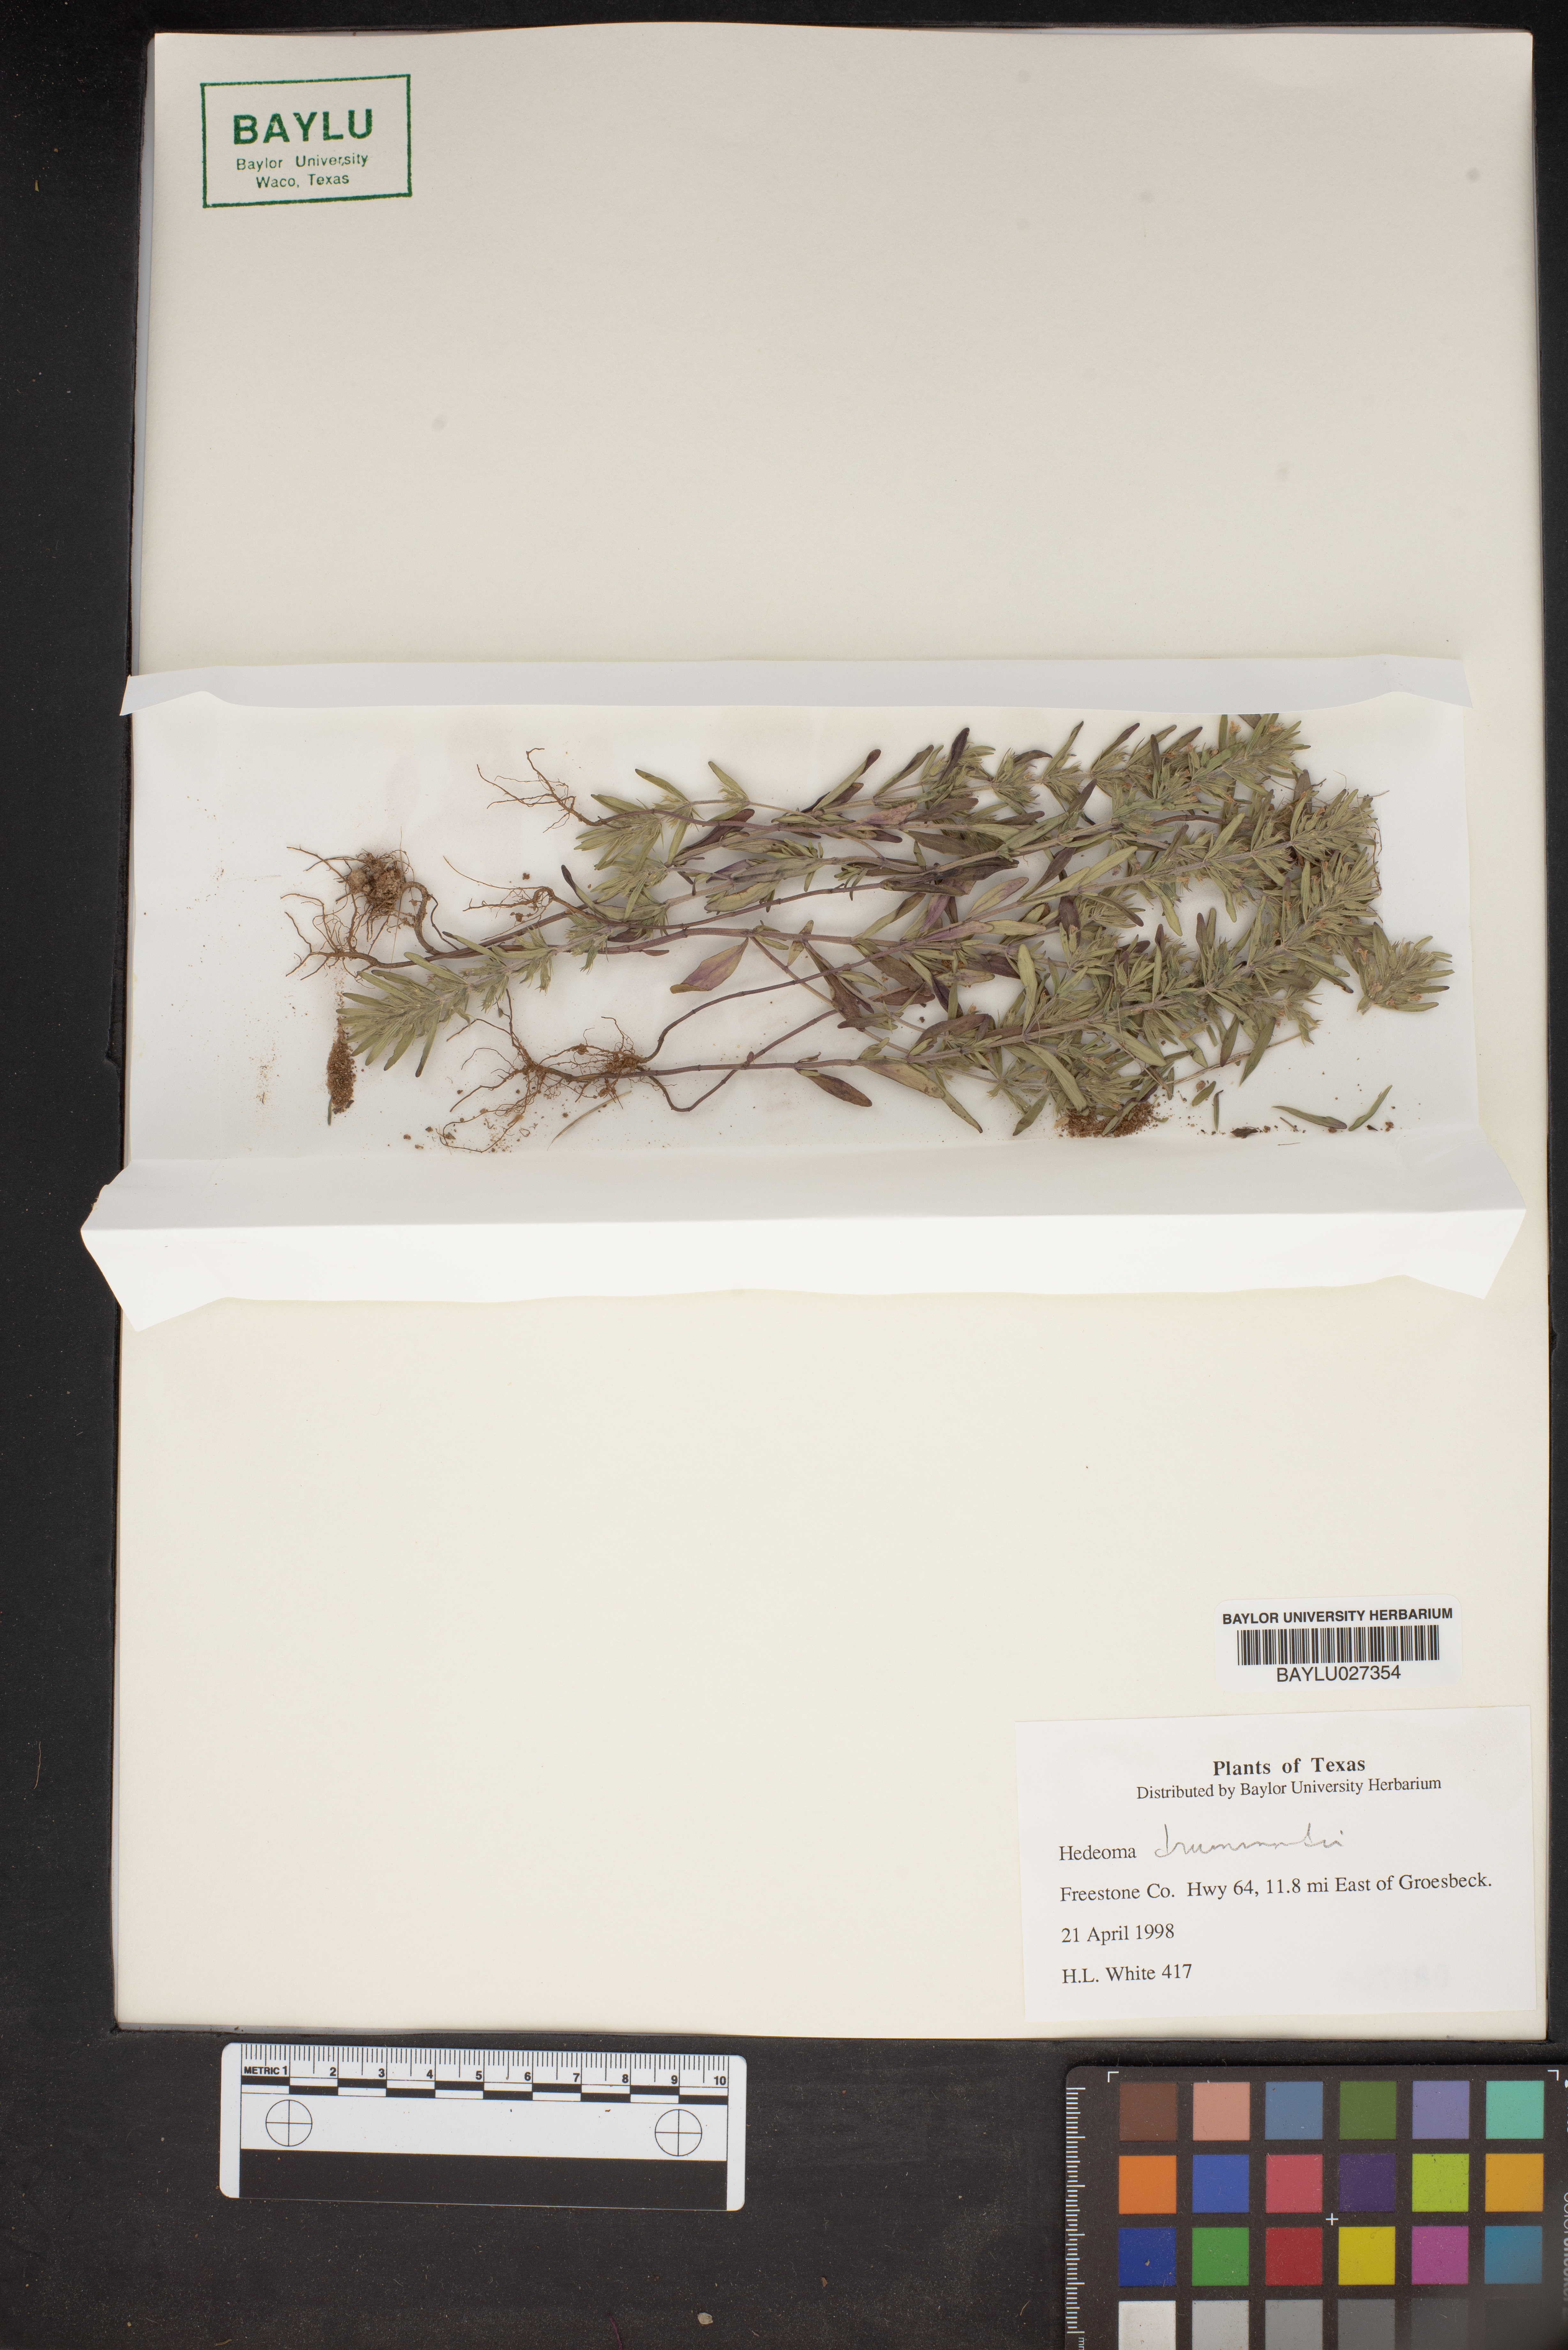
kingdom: Plantae
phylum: Tracheophyta
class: Magnoliopsida
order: Lamiales
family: Lamiaceae
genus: Hedeoma
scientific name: Hedeoma drummondii
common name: New mexico pennyroyal
